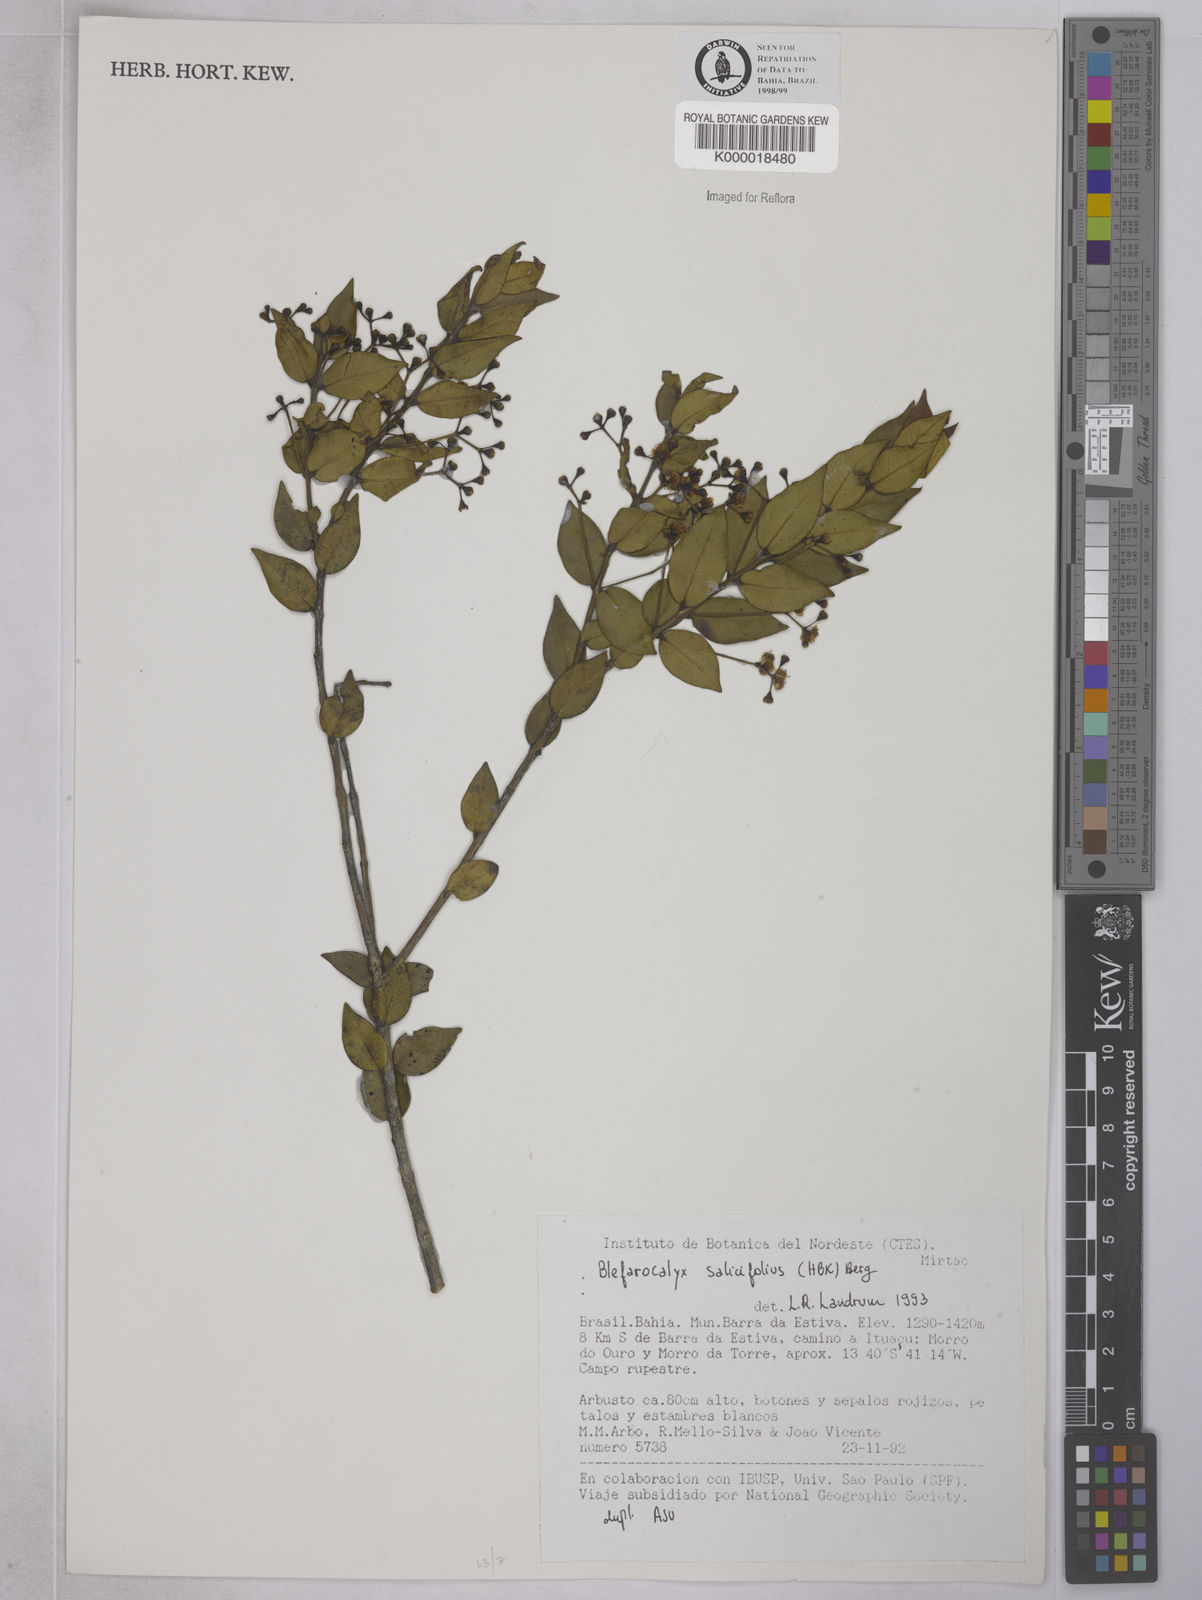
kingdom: Plantae
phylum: Tracheophyta
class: Magnoliopsida
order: Myrtales
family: Myrtaceae
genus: Blepharocalyx
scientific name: Blepharocalyx salicifolius
